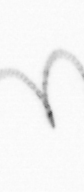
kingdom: Chromista
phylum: Ochrophyta
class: Bacillariophyceae
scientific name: Bacillariophyceae
